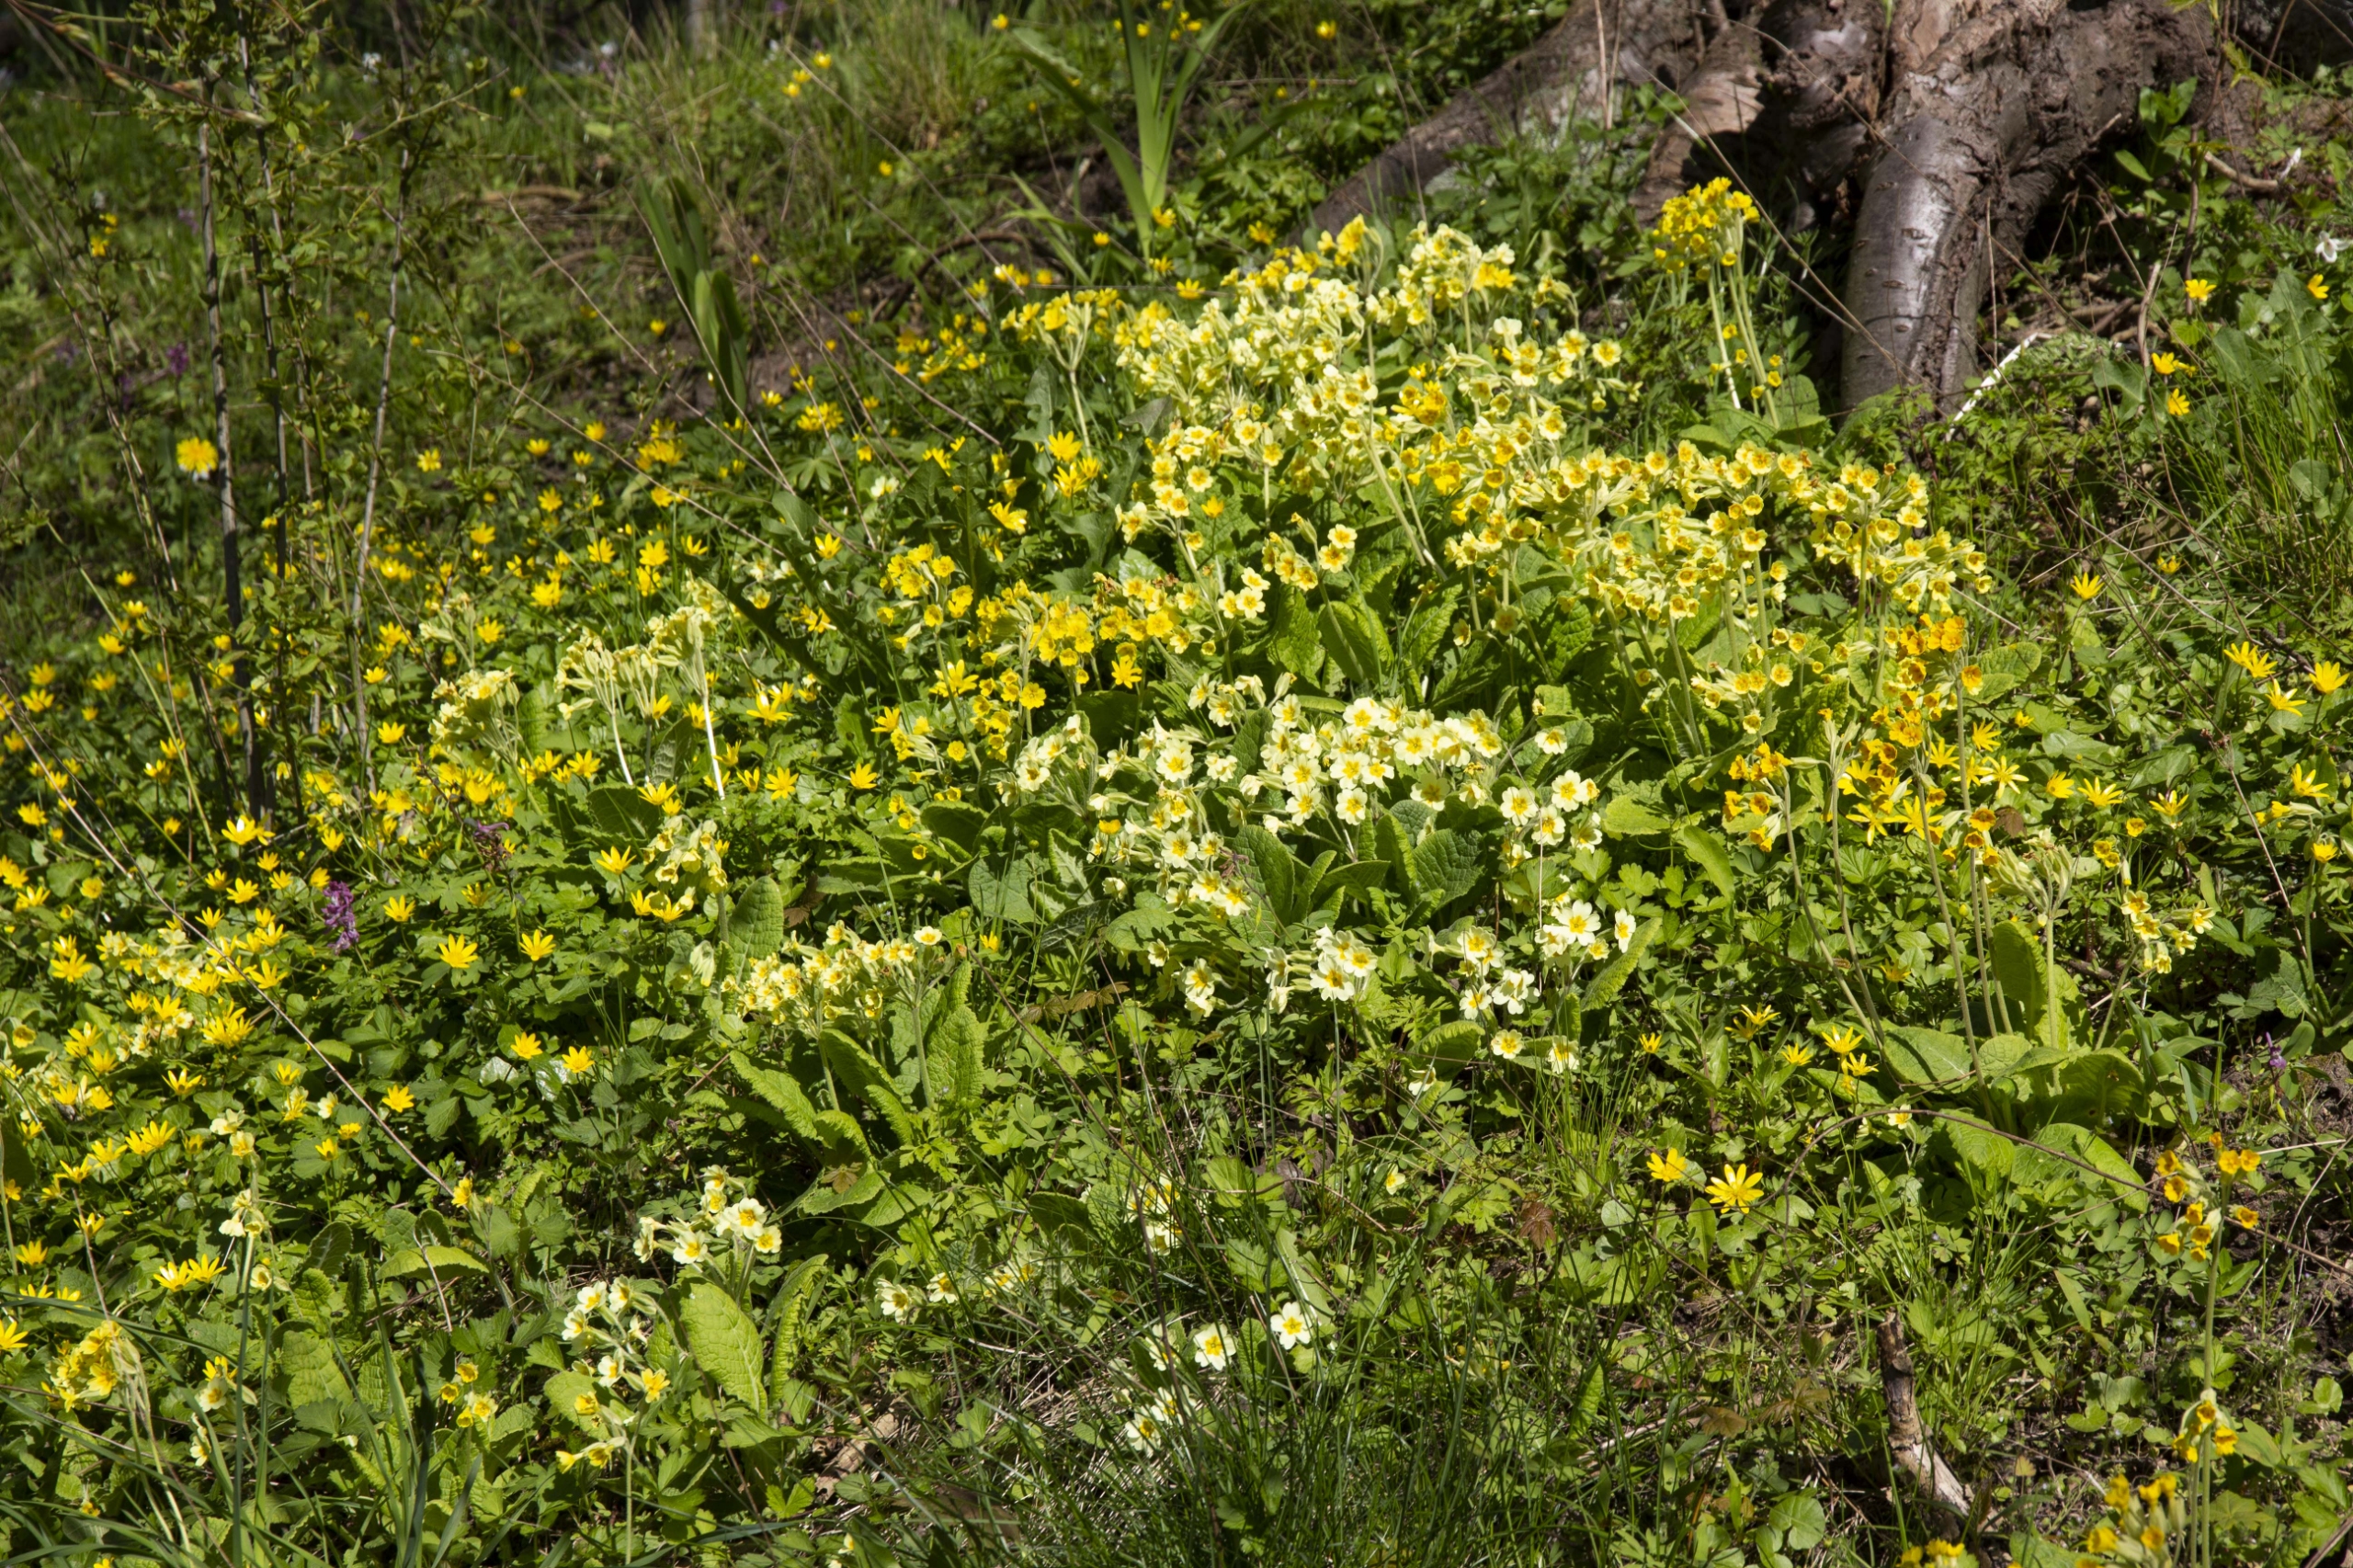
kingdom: Plantae
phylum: Tracheophyta
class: Magnoliopsida
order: Ericales
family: Primulaceae
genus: Primula
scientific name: Primula polyantha
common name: Hulkravet kodriver × storblomstret kodriver
